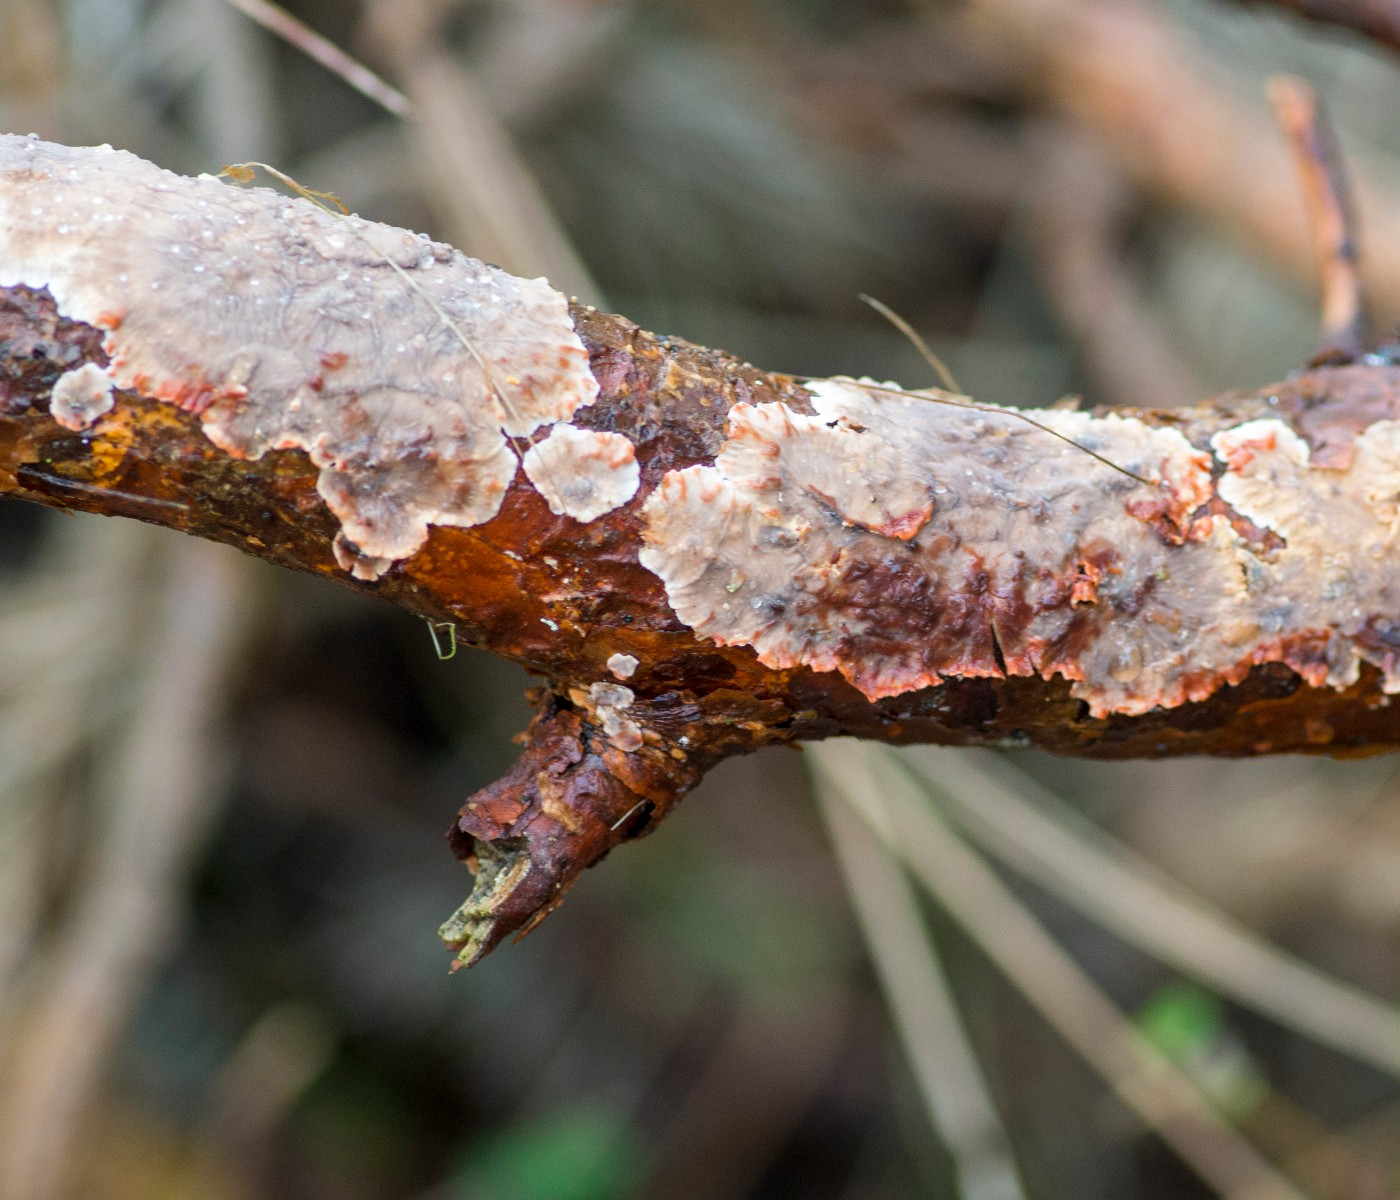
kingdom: Fungi
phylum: Basidiomycota
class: Agaricomycetes
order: Russulales
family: Stereaceae
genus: Stereum
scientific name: Stereum sanguinolentum
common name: blødende lædersvamp
